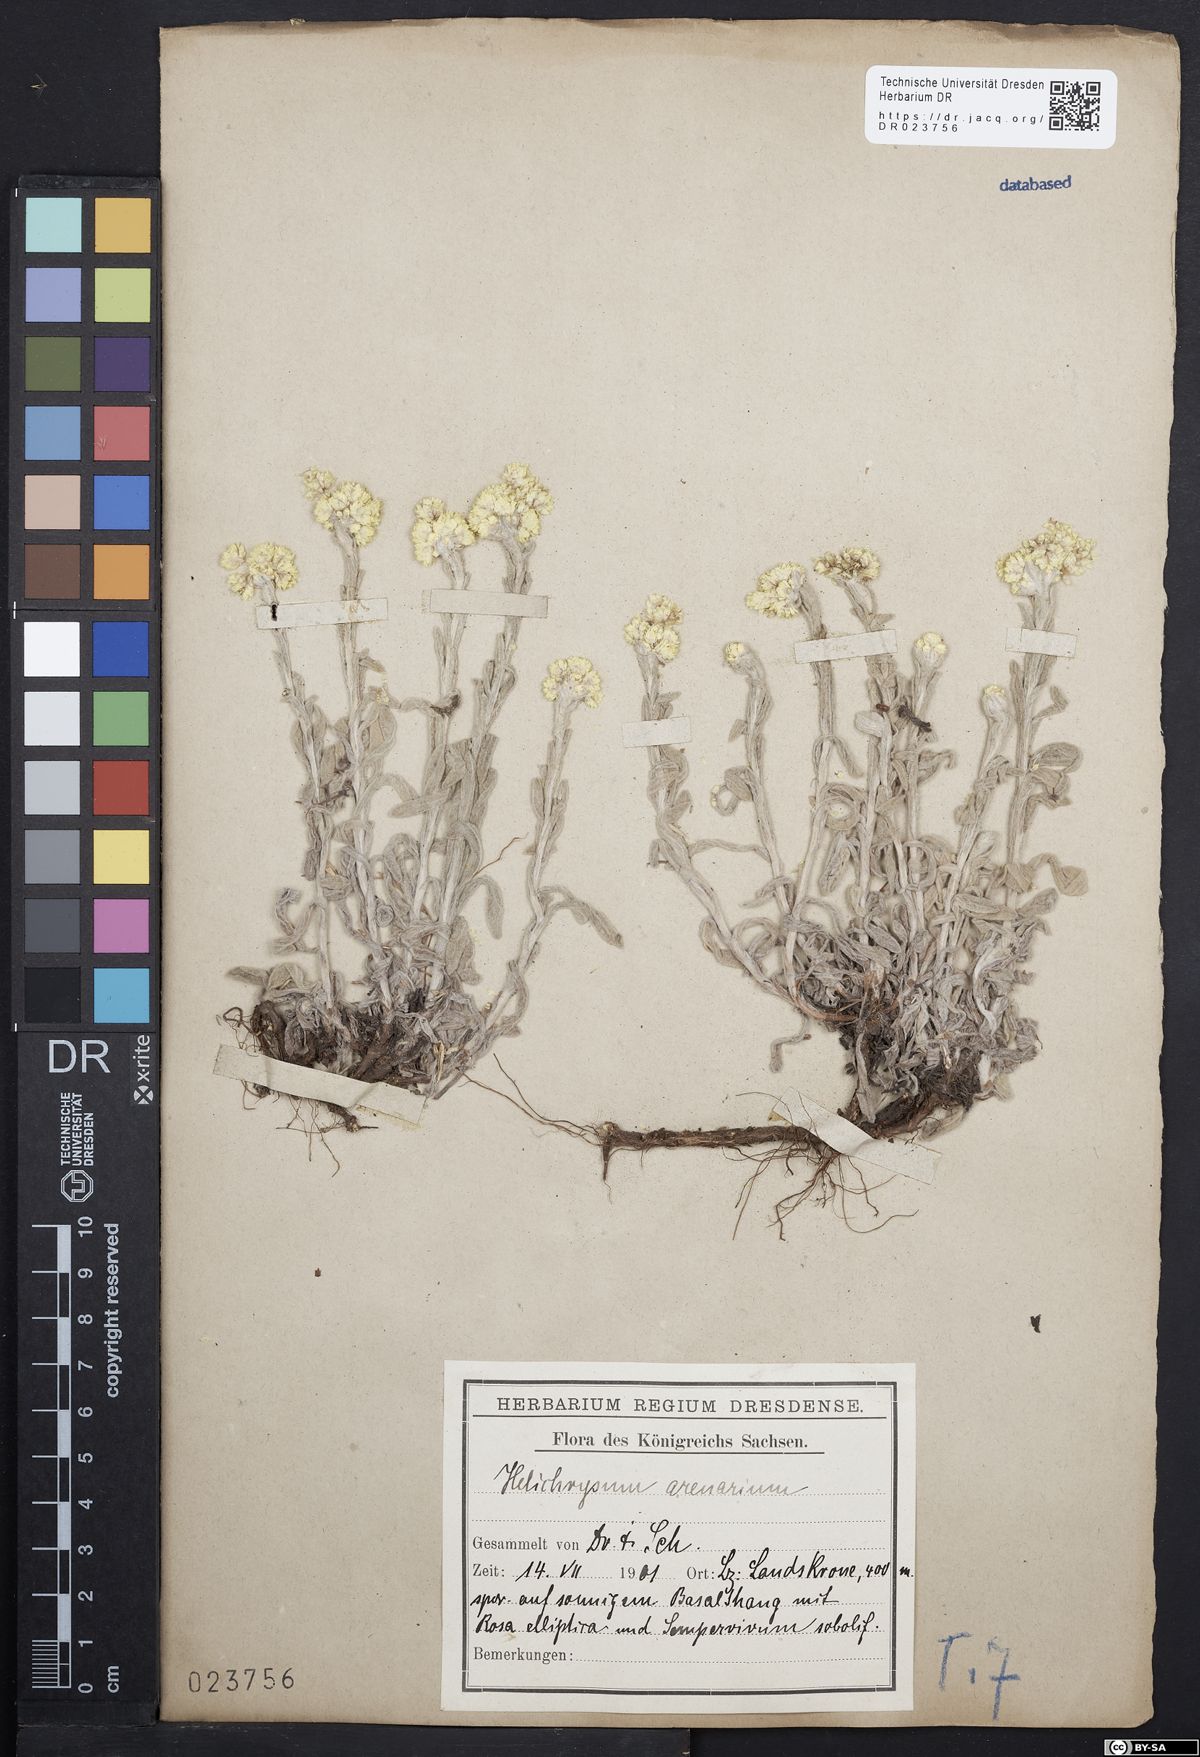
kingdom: Plantae
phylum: Tracheophyta
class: Magnoliopsida
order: Asterales
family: Asteraceae
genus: Helichrysum
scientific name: Helichrysum arenarium
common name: Strawflower
